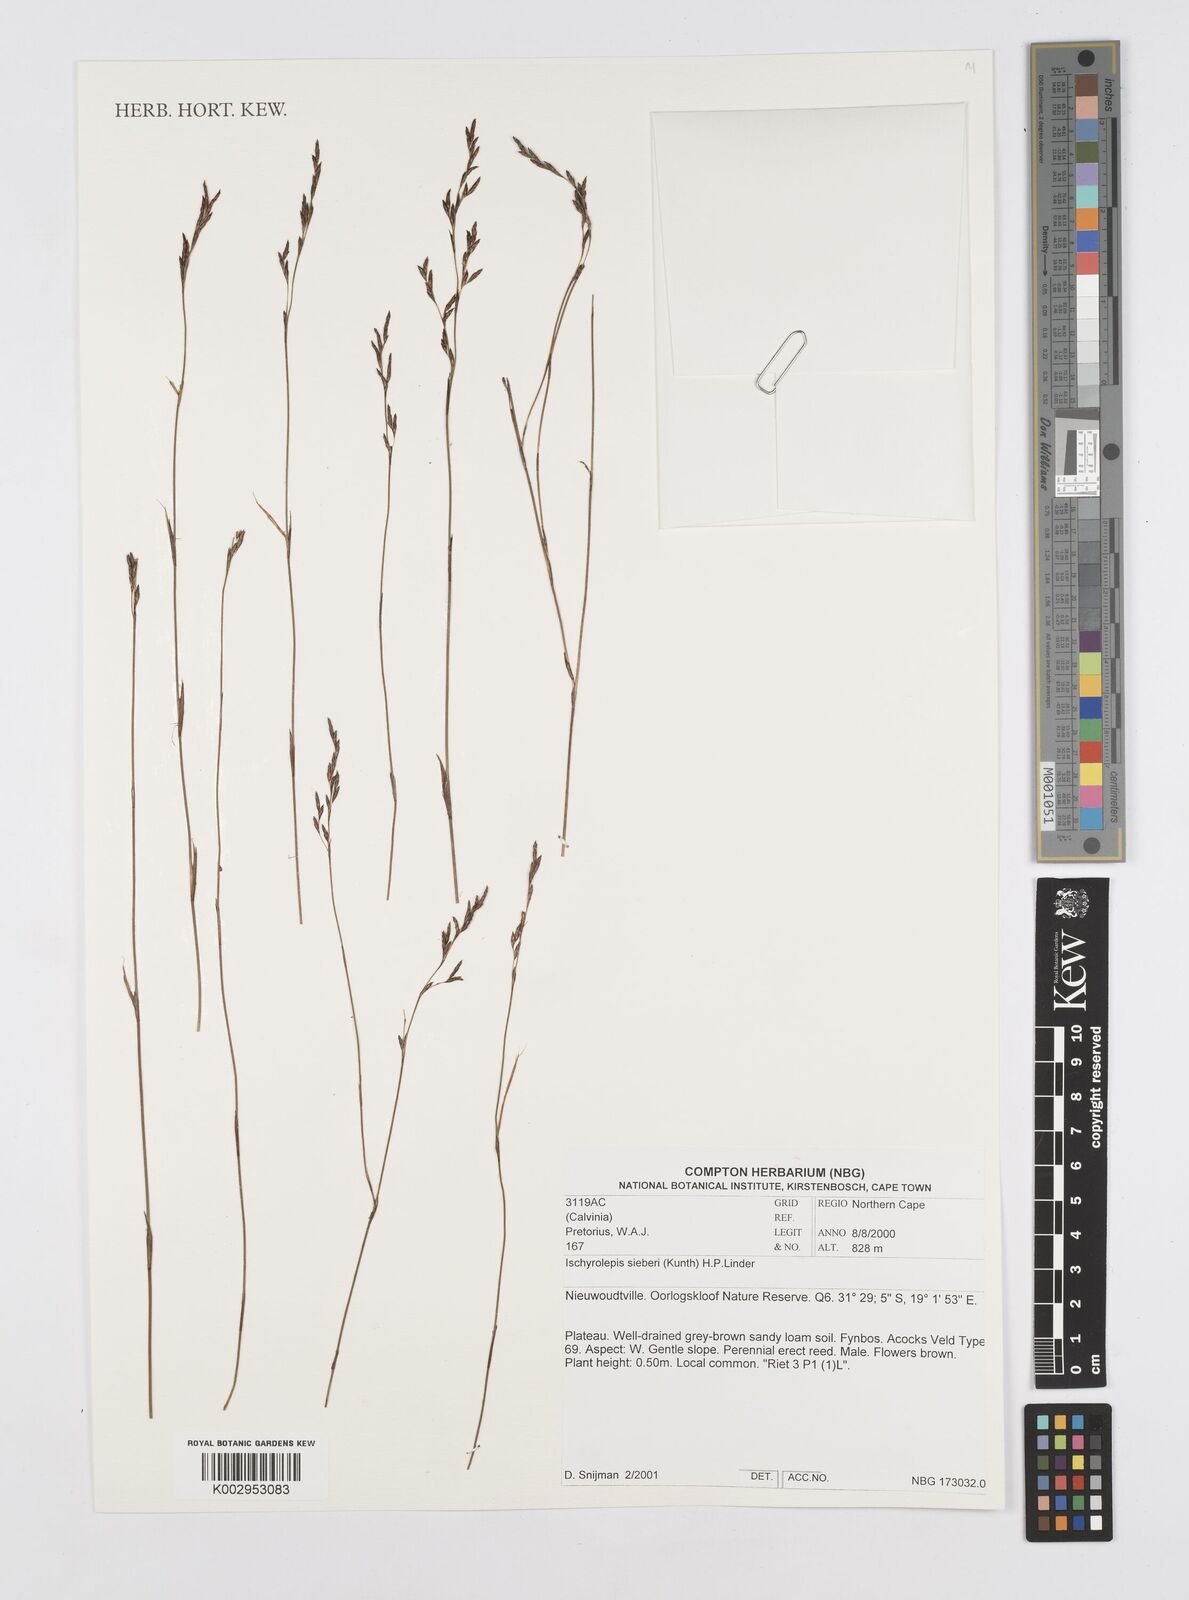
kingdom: Plantae
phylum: Tracheophyta
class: Liliopsida
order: Poales
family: Restionaceae
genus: Restio
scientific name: Restio sieberi
